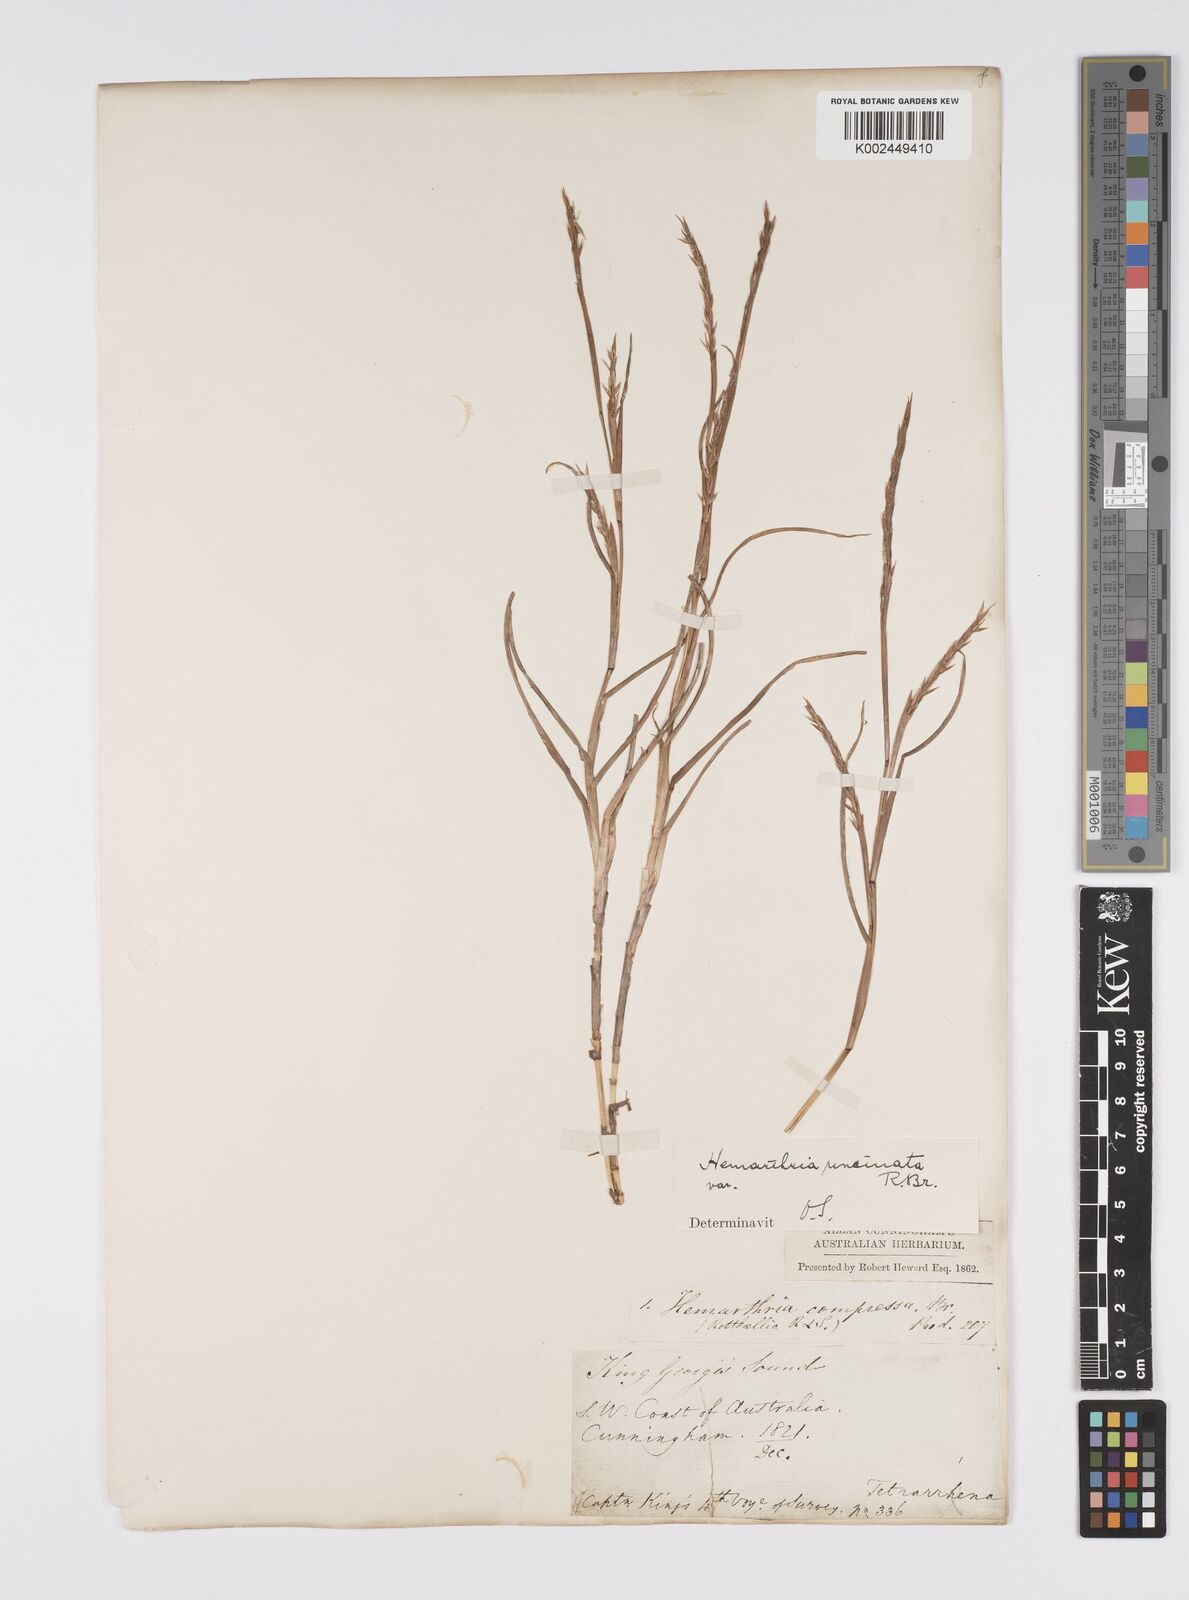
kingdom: Plantae
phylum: Tracheophyta
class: Liliopsida
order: Poales
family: Poaceae
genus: Hemarthria
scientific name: Hemarthria uncinata
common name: Matgrass
